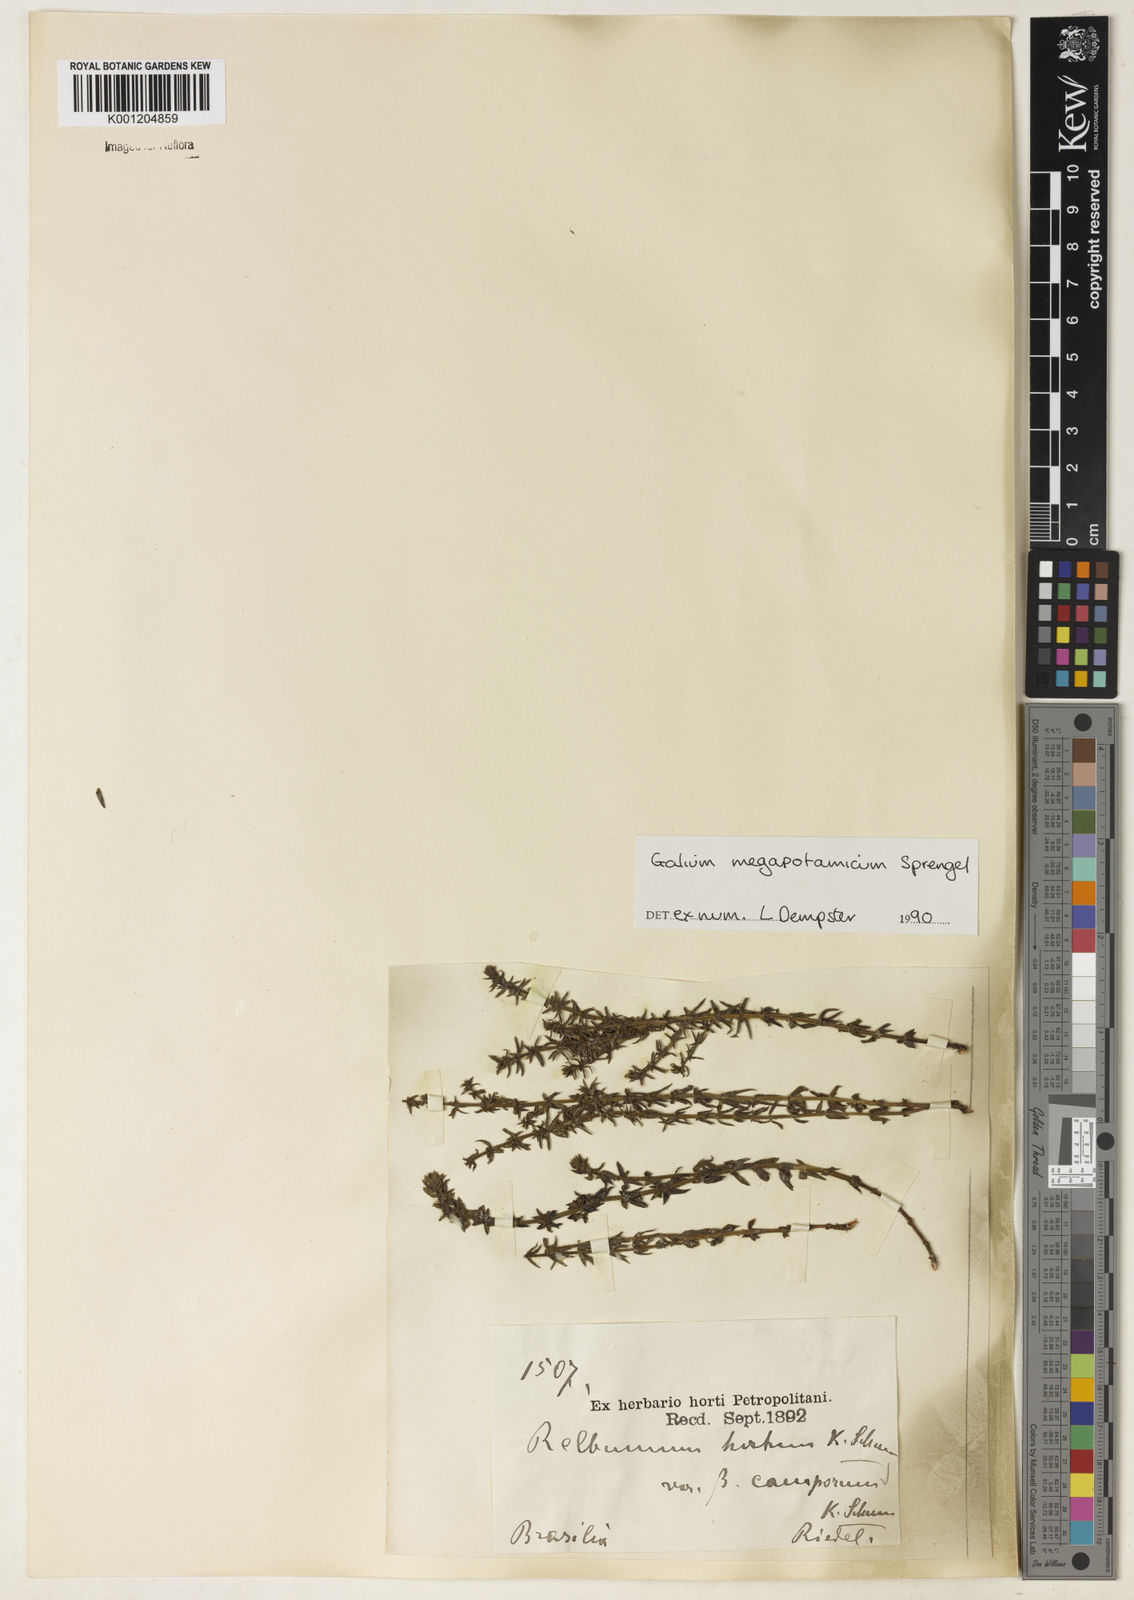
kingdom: Plantae
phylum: Tracheophyta
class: Magnoliopsida
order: Gentianales
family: Rubiaceae
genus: Galium
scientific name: Galium megapotamicum
